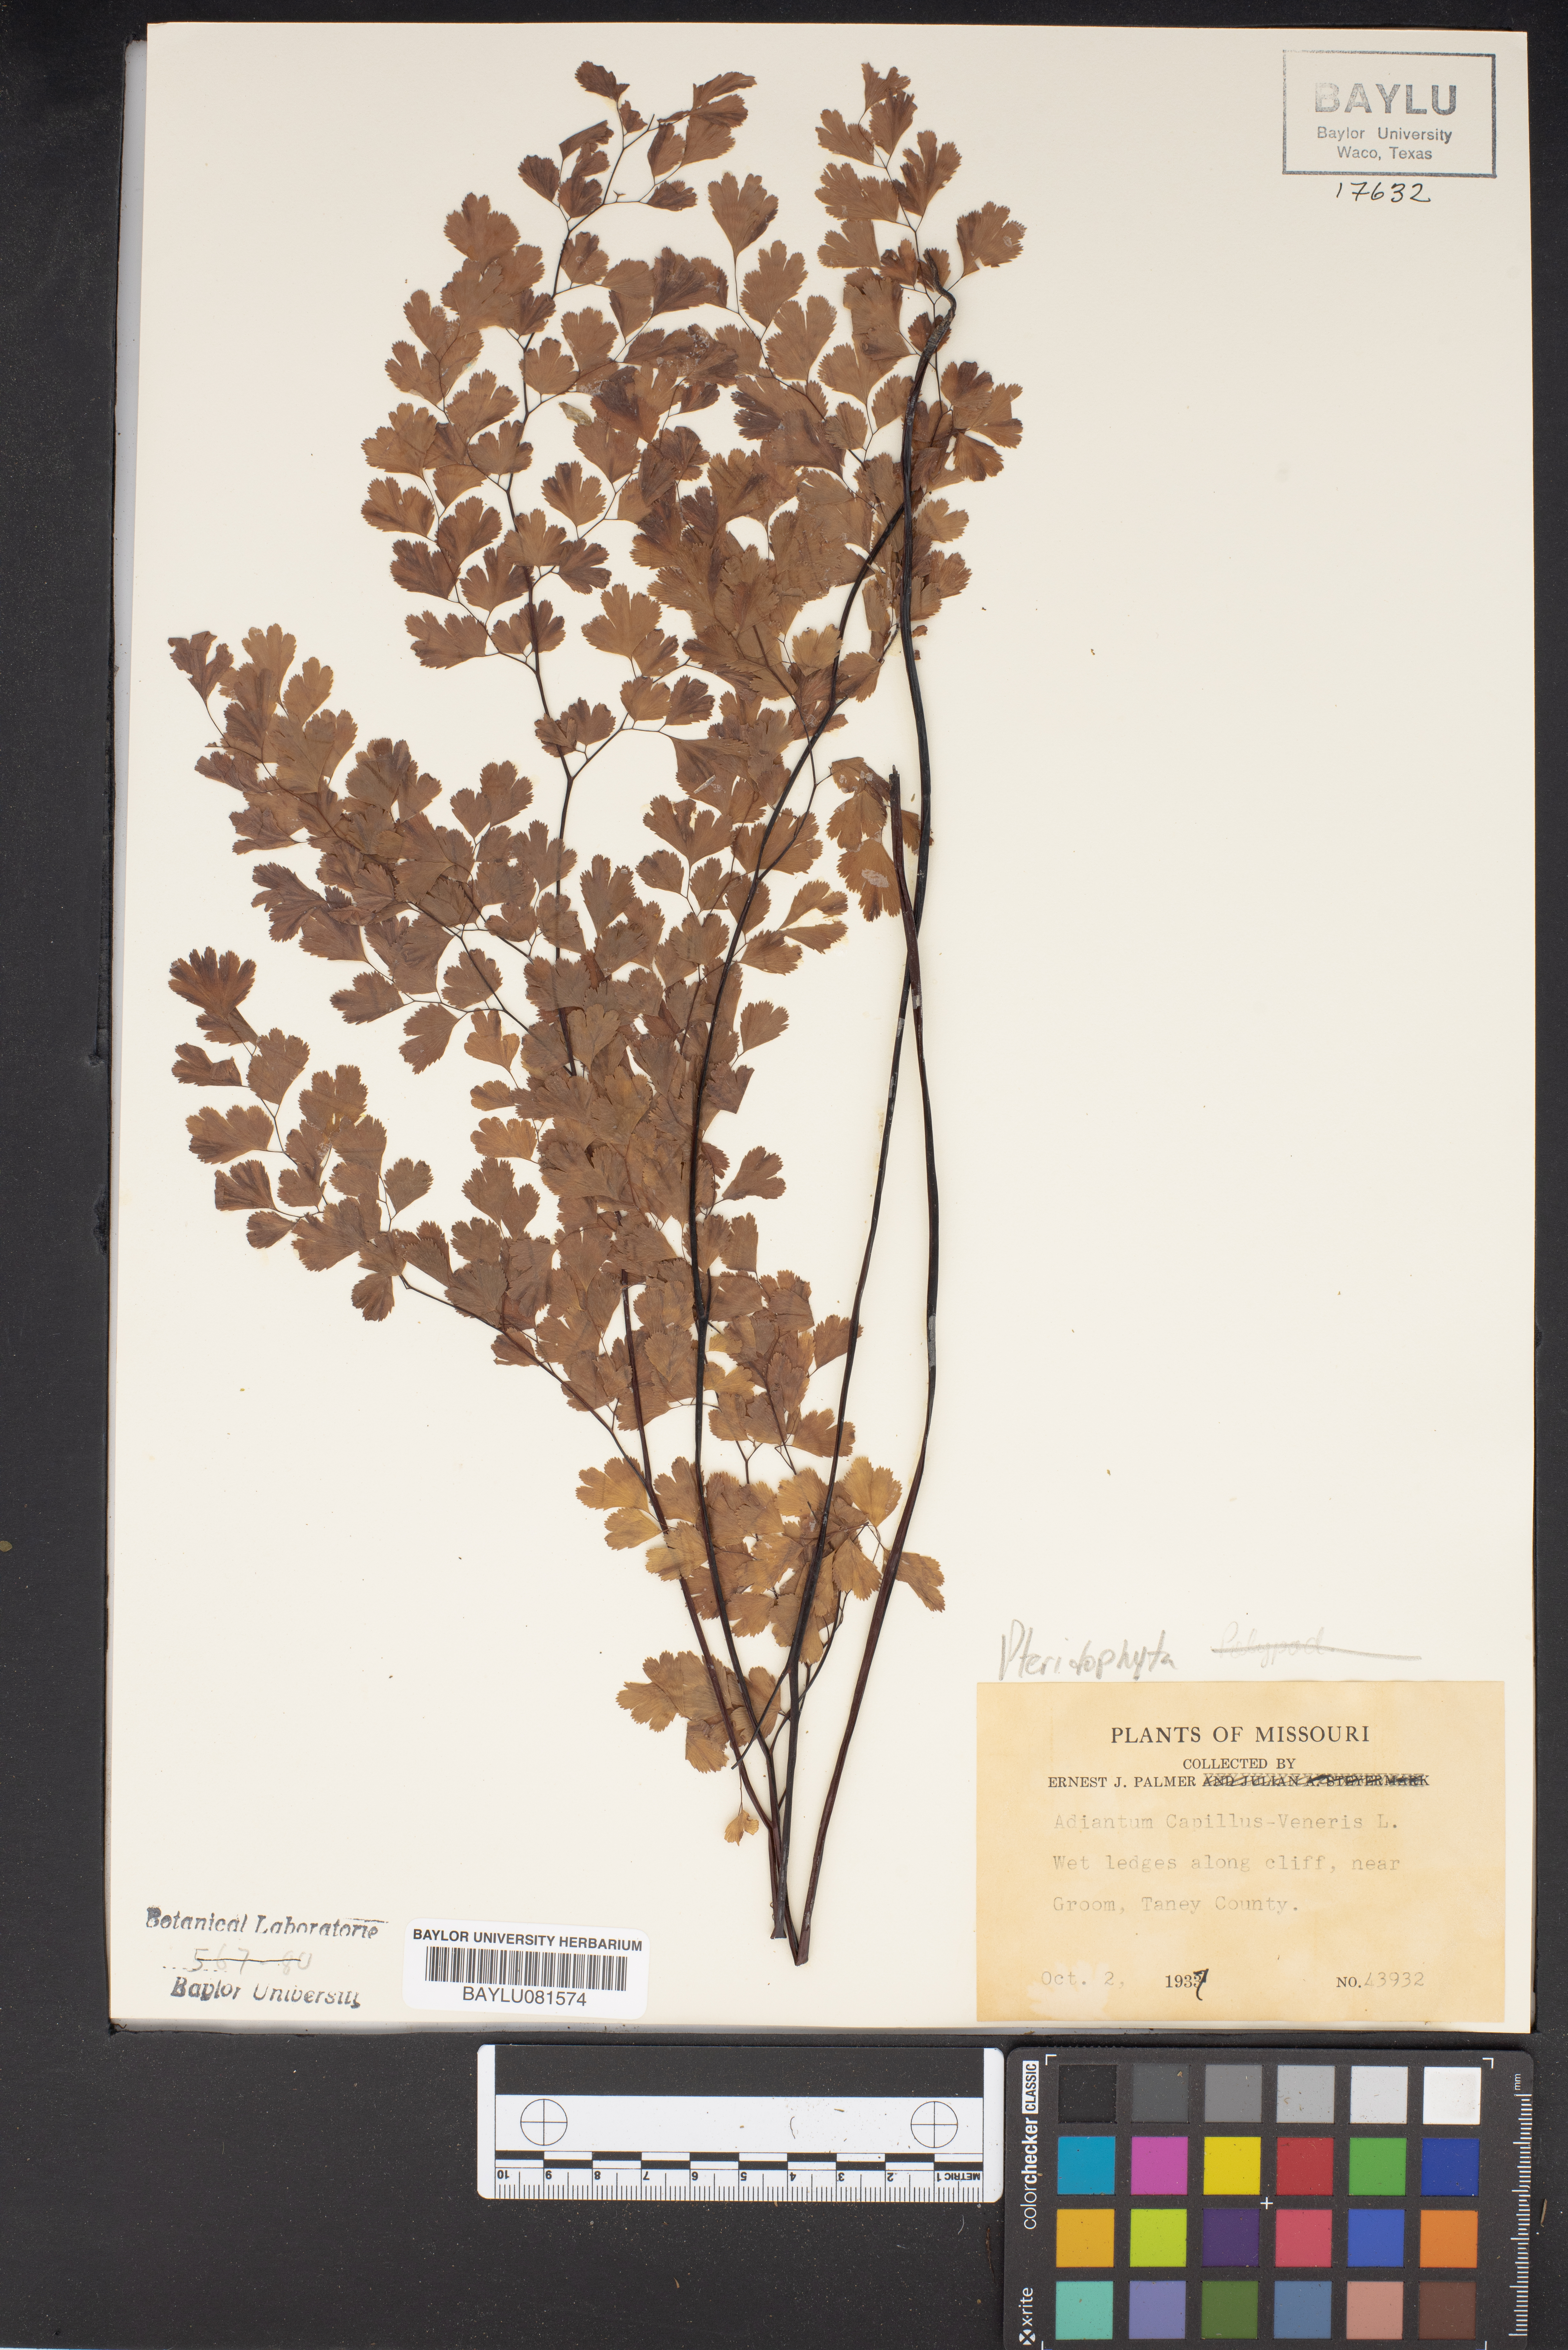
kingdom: Plantae
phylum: Tracheophyta
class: Polypodiopsida
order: Polypodiales
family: Pteridaceae
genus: Adiantum
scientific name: Adiantum capillus-veneris
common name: Maidenhair fern
